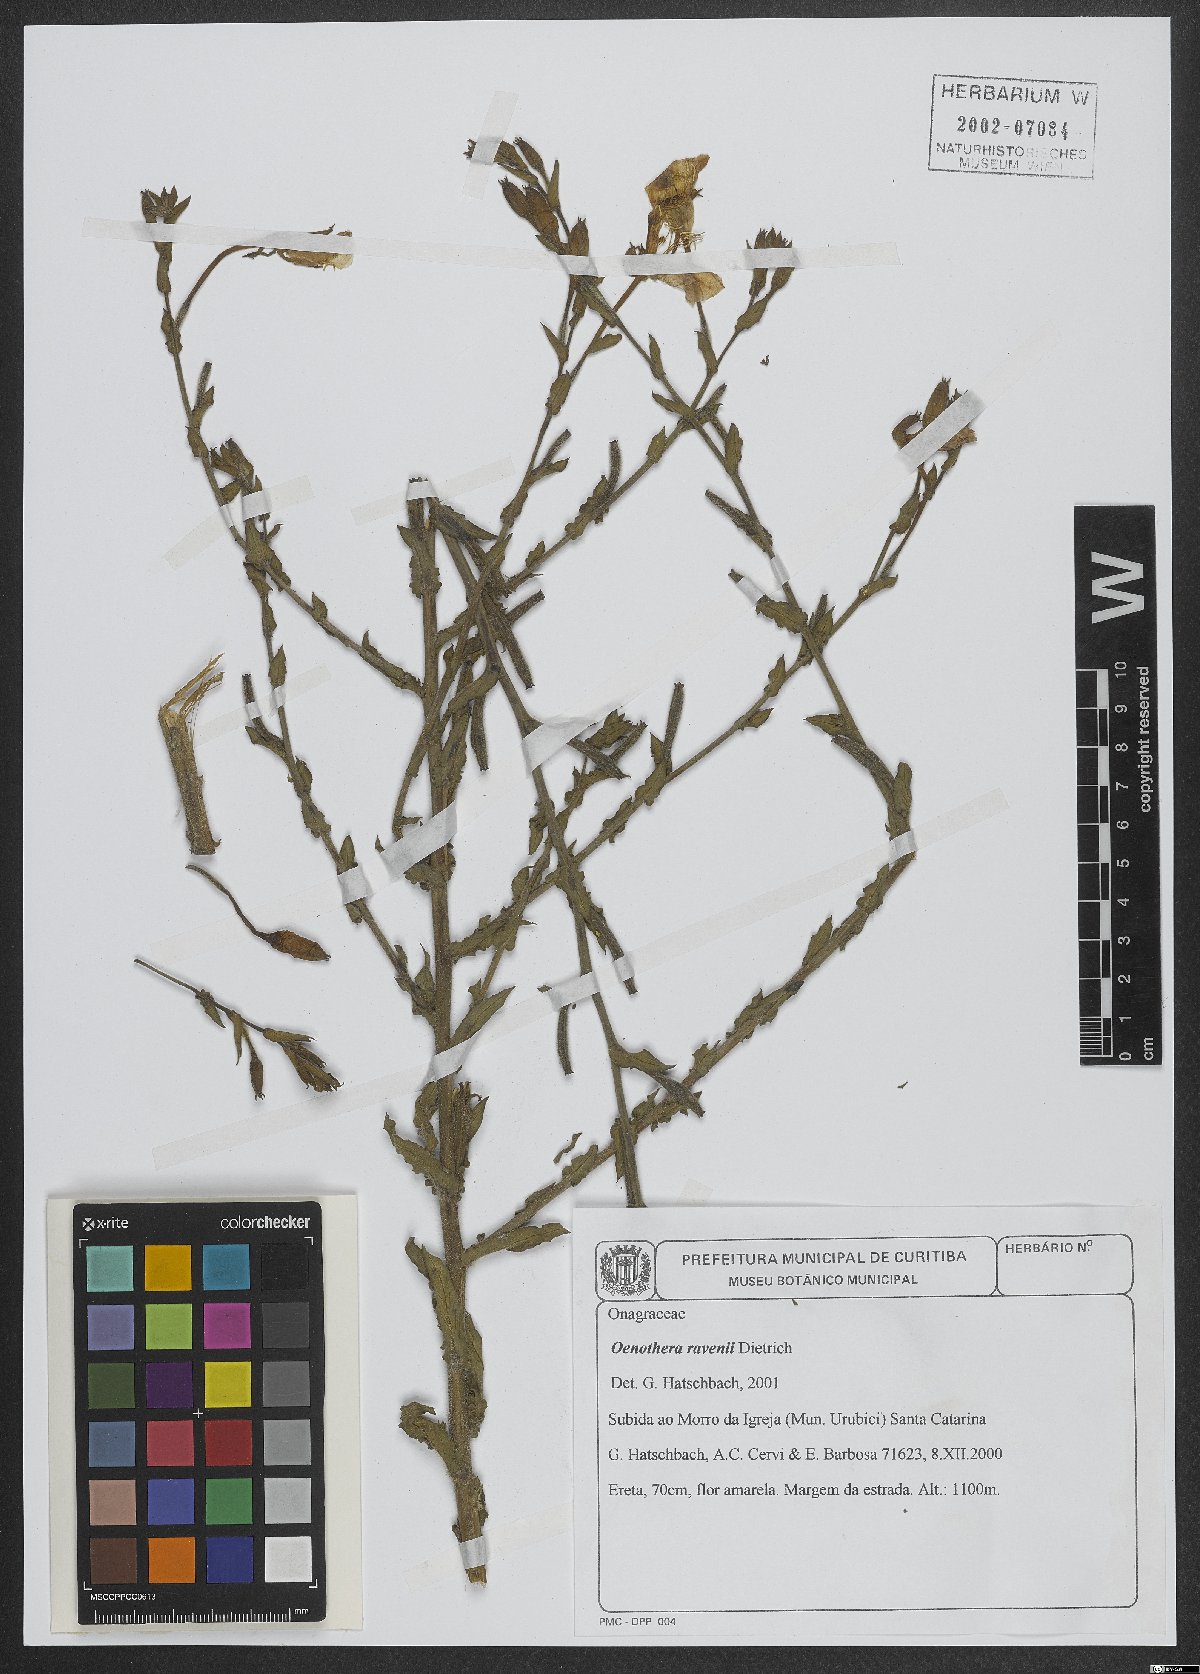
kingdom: Plantae
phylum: Tracheophyta
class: Magnoliopsida
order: Myrtales
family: Onagraceae
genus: Oenothera
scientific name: Oenothera ravenii
